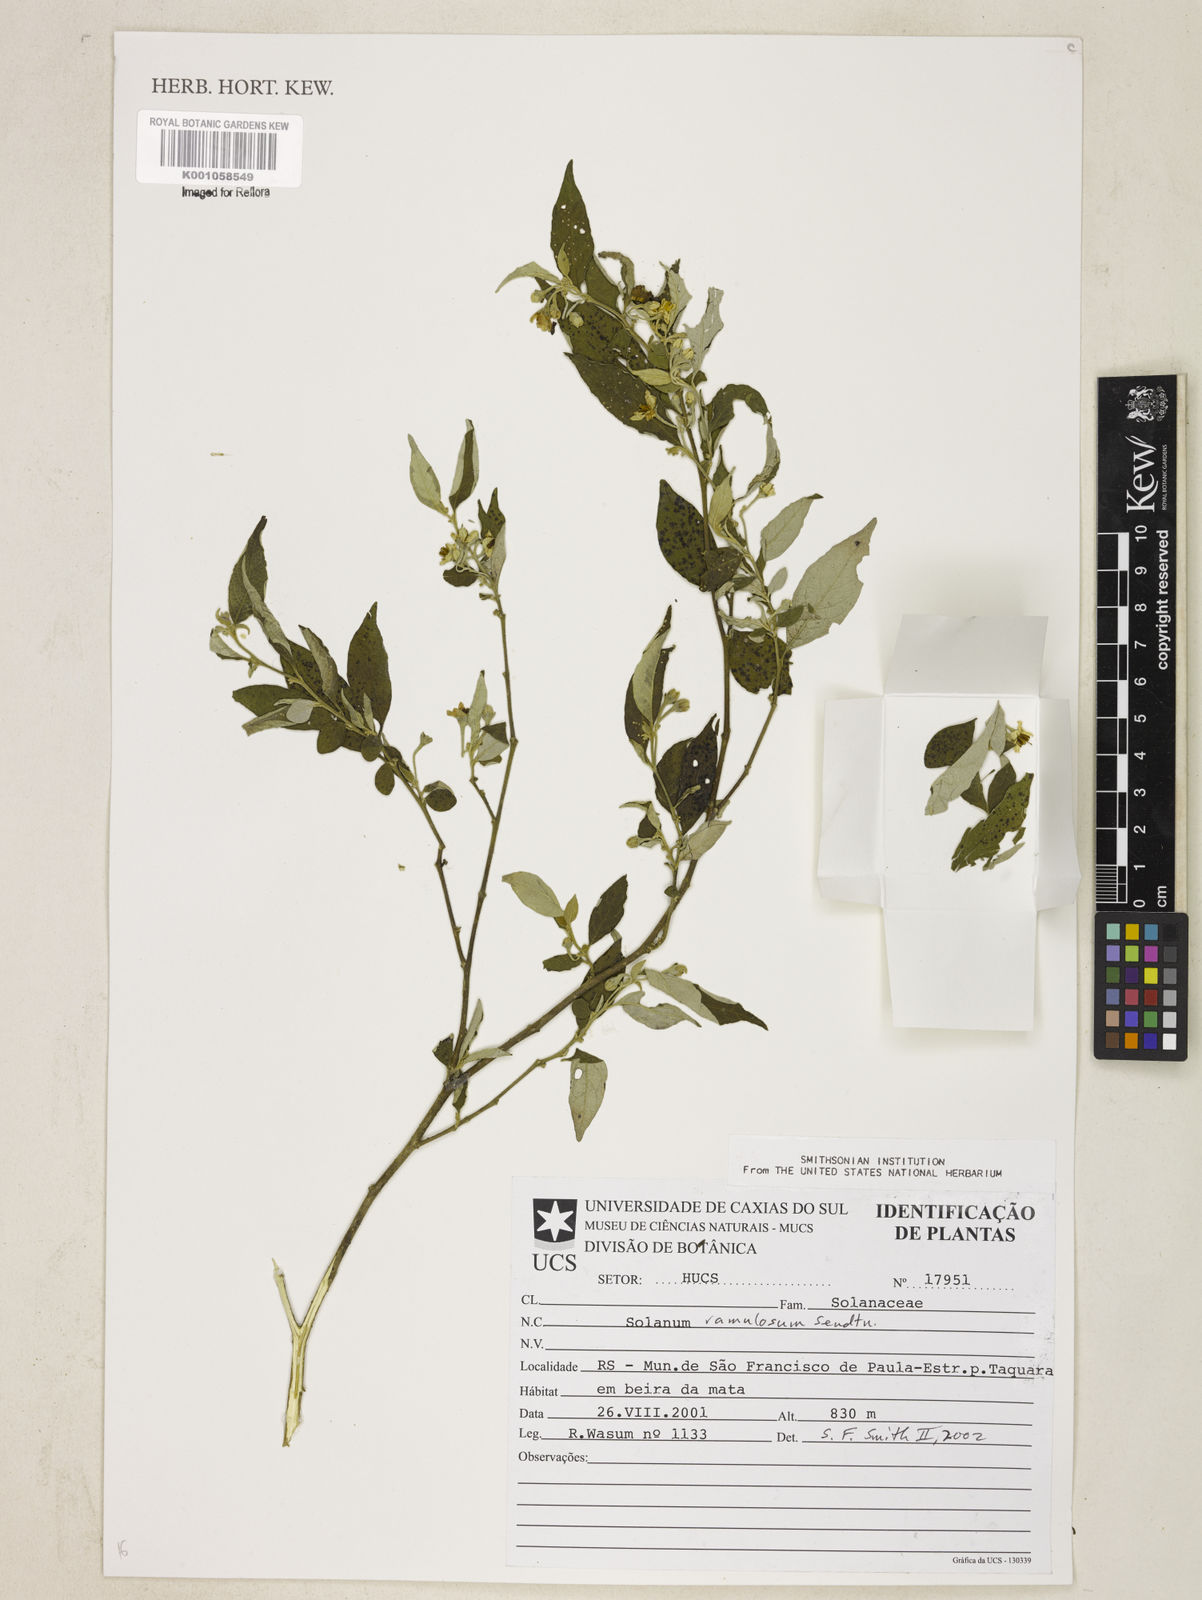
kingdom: Plantae
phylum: Tracheophyta
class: Magnoliopsida
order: Solanales
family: Solanaceae
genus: Solanum
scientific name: Solanum ramulosum
